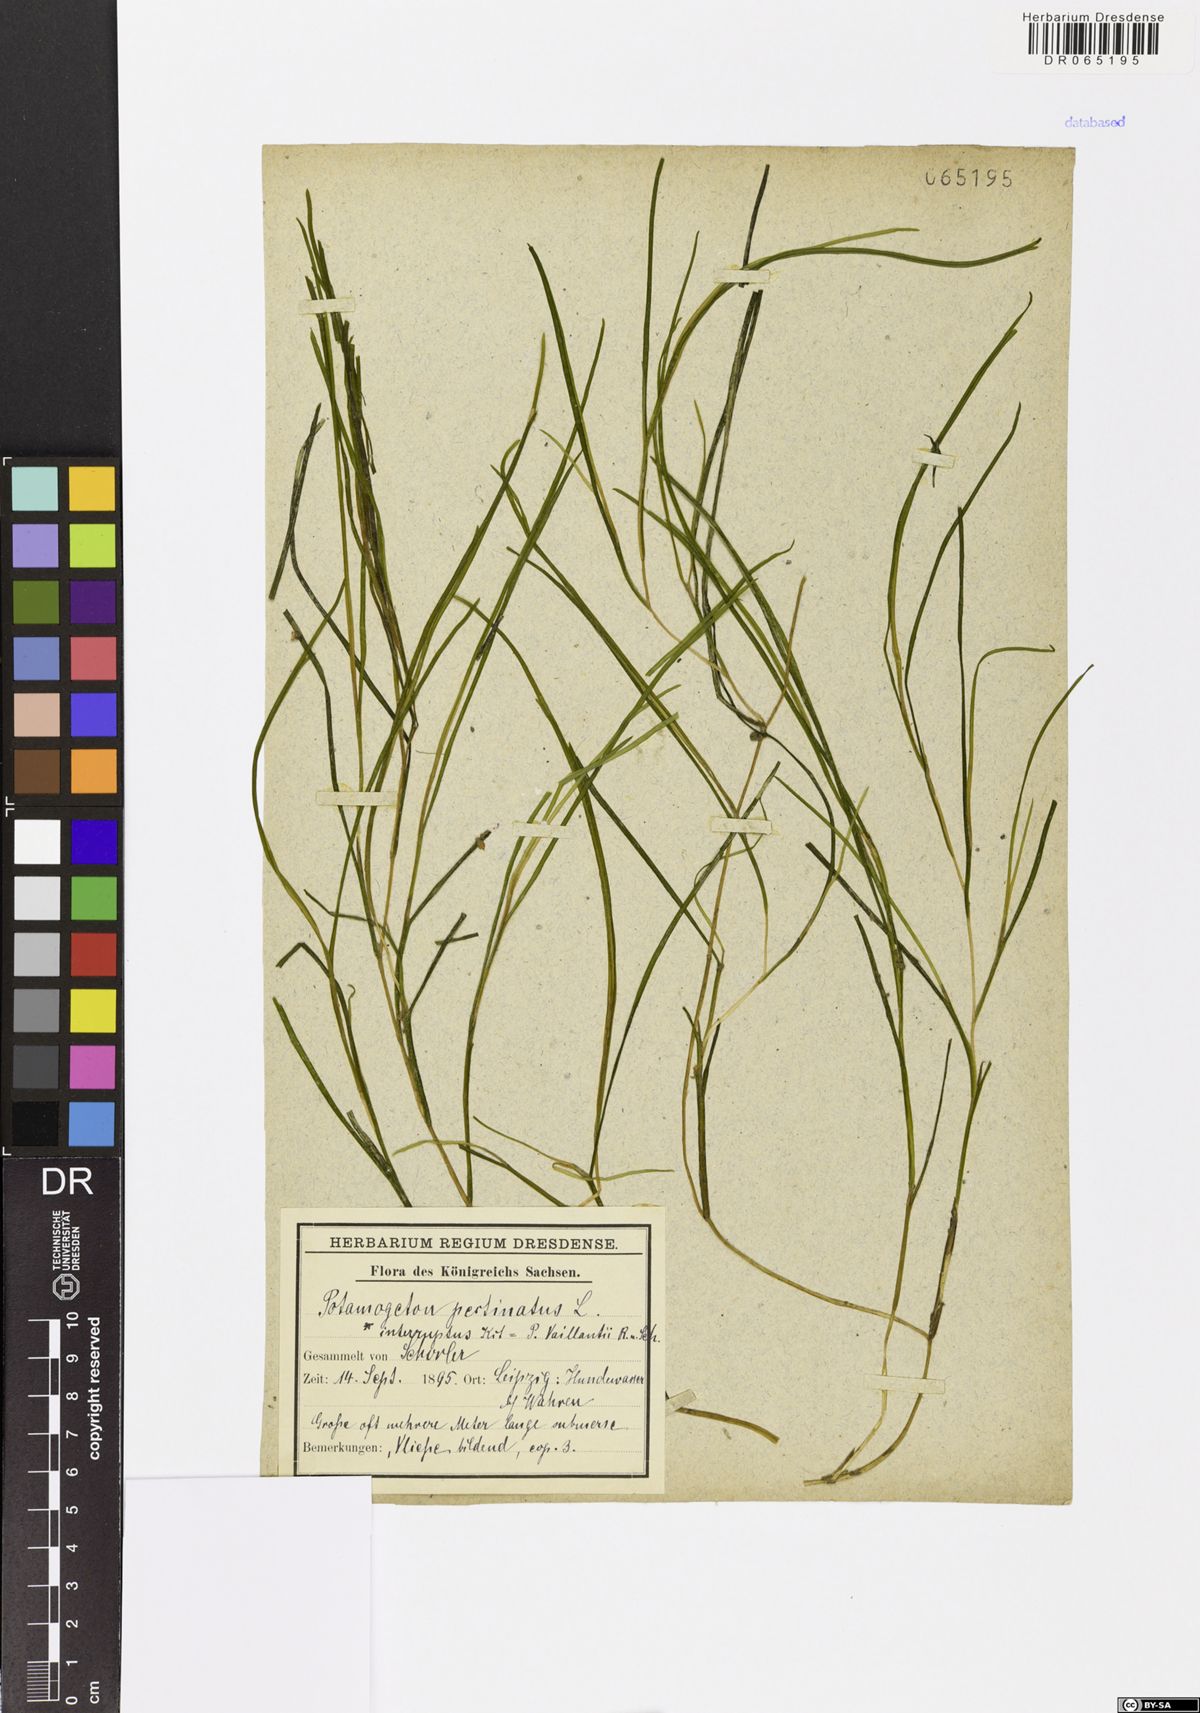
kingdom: Plantae
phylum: Tracheophyta
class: Liliopsida
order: Alismatales
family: Potamogetonaceae
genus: Stuckenia
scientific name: Stuckenia pectinata
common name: Sago pondweed
